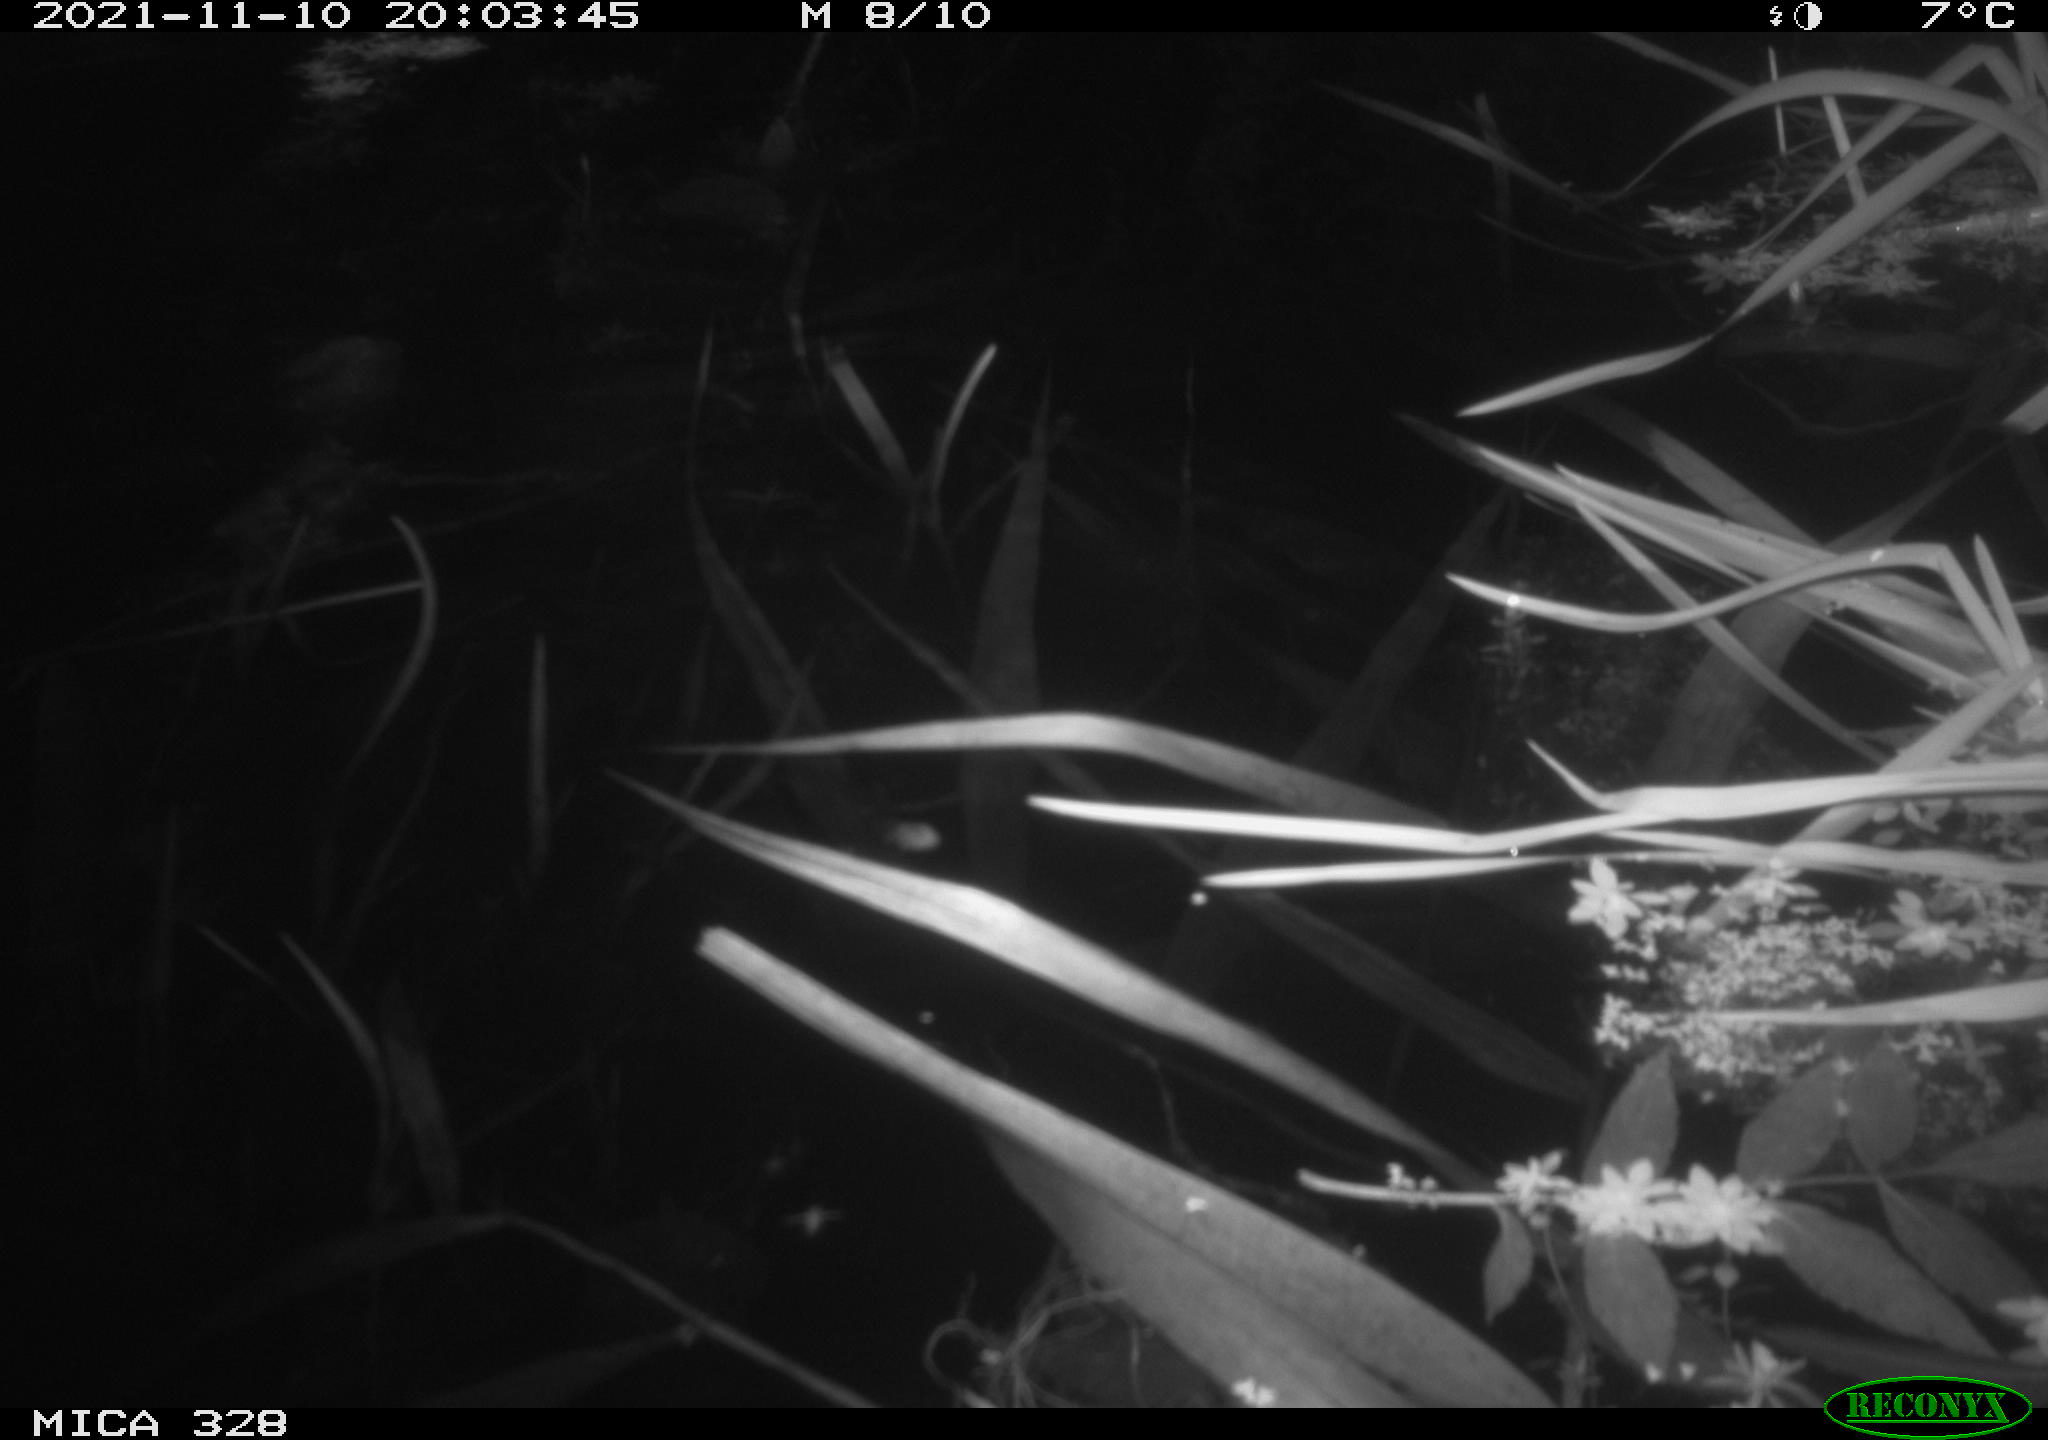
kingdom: Animalia
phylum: Chordata
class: Mammalia
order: Rodentia
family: Cricetidae
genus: Ondatra
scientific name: Ondatra zibethicus
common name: Muskrat
